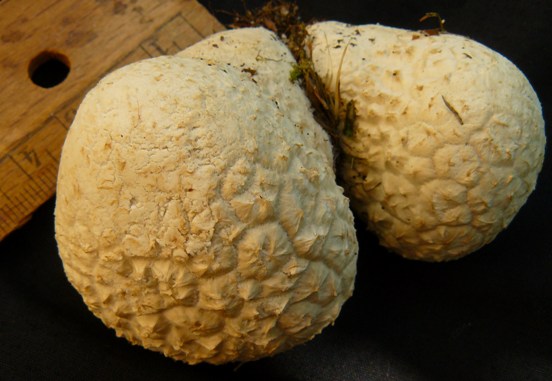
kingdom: Fungi
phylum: Basidiomycota
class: Agaricomycetes
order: Agaricales
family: Lycoperdaceae
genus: Bovistella
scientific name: Bovistella utriformis
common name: skællet støvbold
